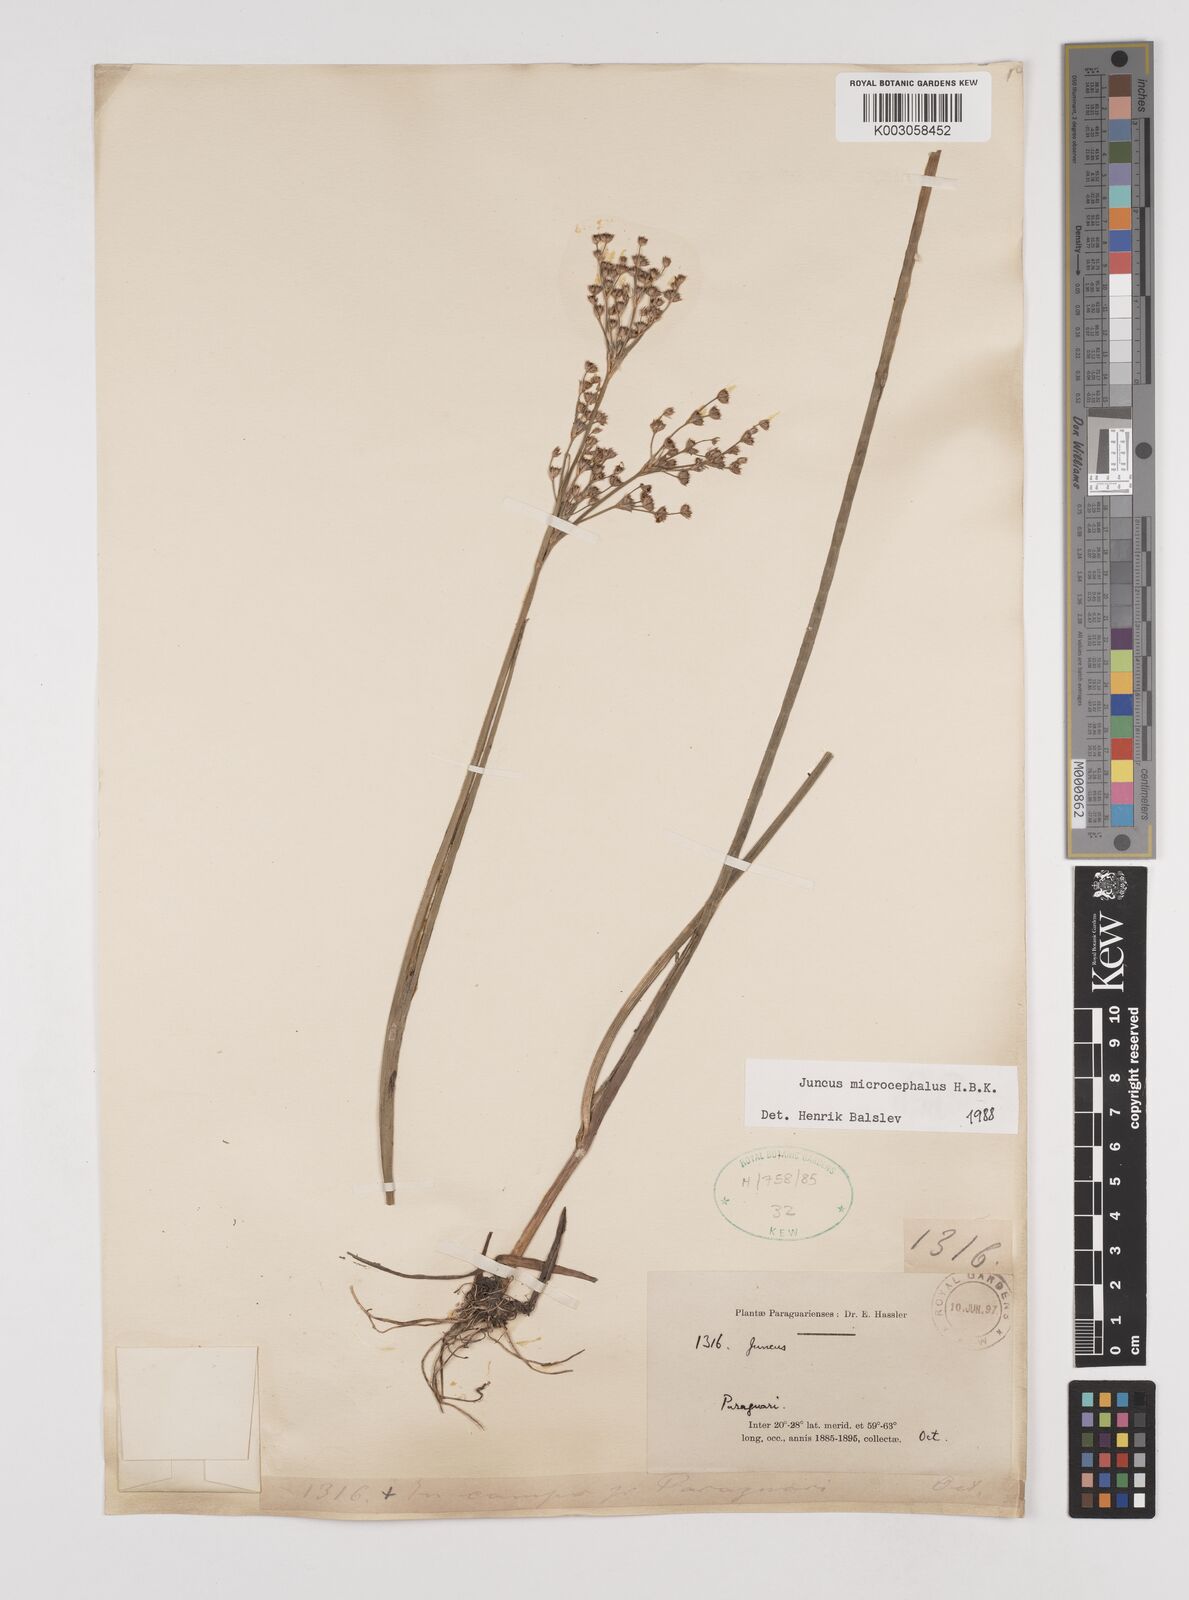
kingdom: Plantae
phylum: Tracheophyta
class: Liliopsida
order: Poales
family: Juncaceae
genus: Juncus
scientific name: Juncus microcephalus
